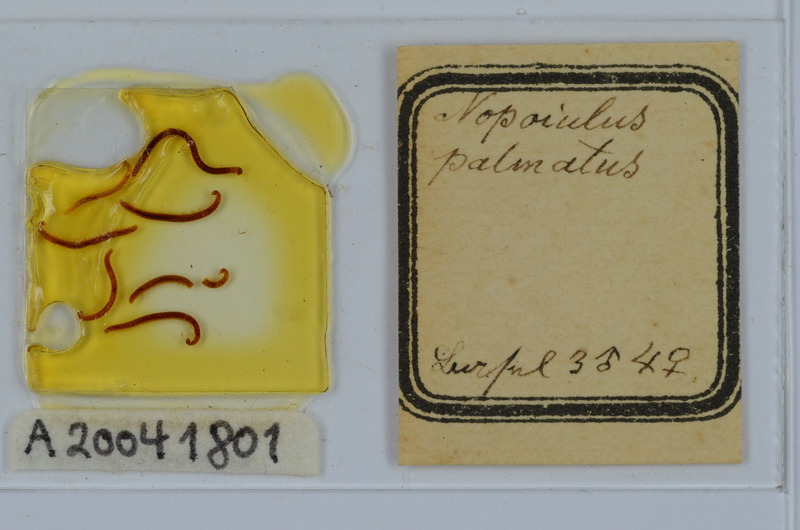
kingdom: Animalia
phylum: Arthropoda
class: Diplopoda
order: Julida
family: Blaniulidae
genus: Nopoiulus
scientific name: Nopoiulus palmatus
